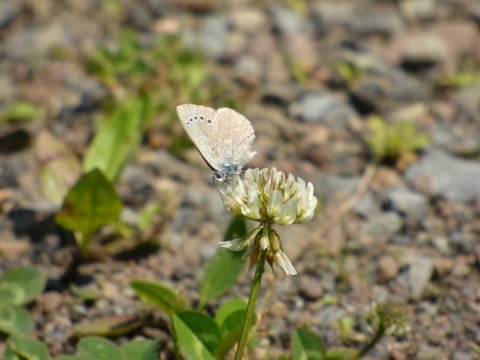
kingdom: Animalia
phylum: Arthropoda
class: Insecta
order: Lepidoptera
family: Lycaenidae
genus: Glaucopsyche
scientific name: Glaucopsyche lygdamus
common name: Silvery Blue
